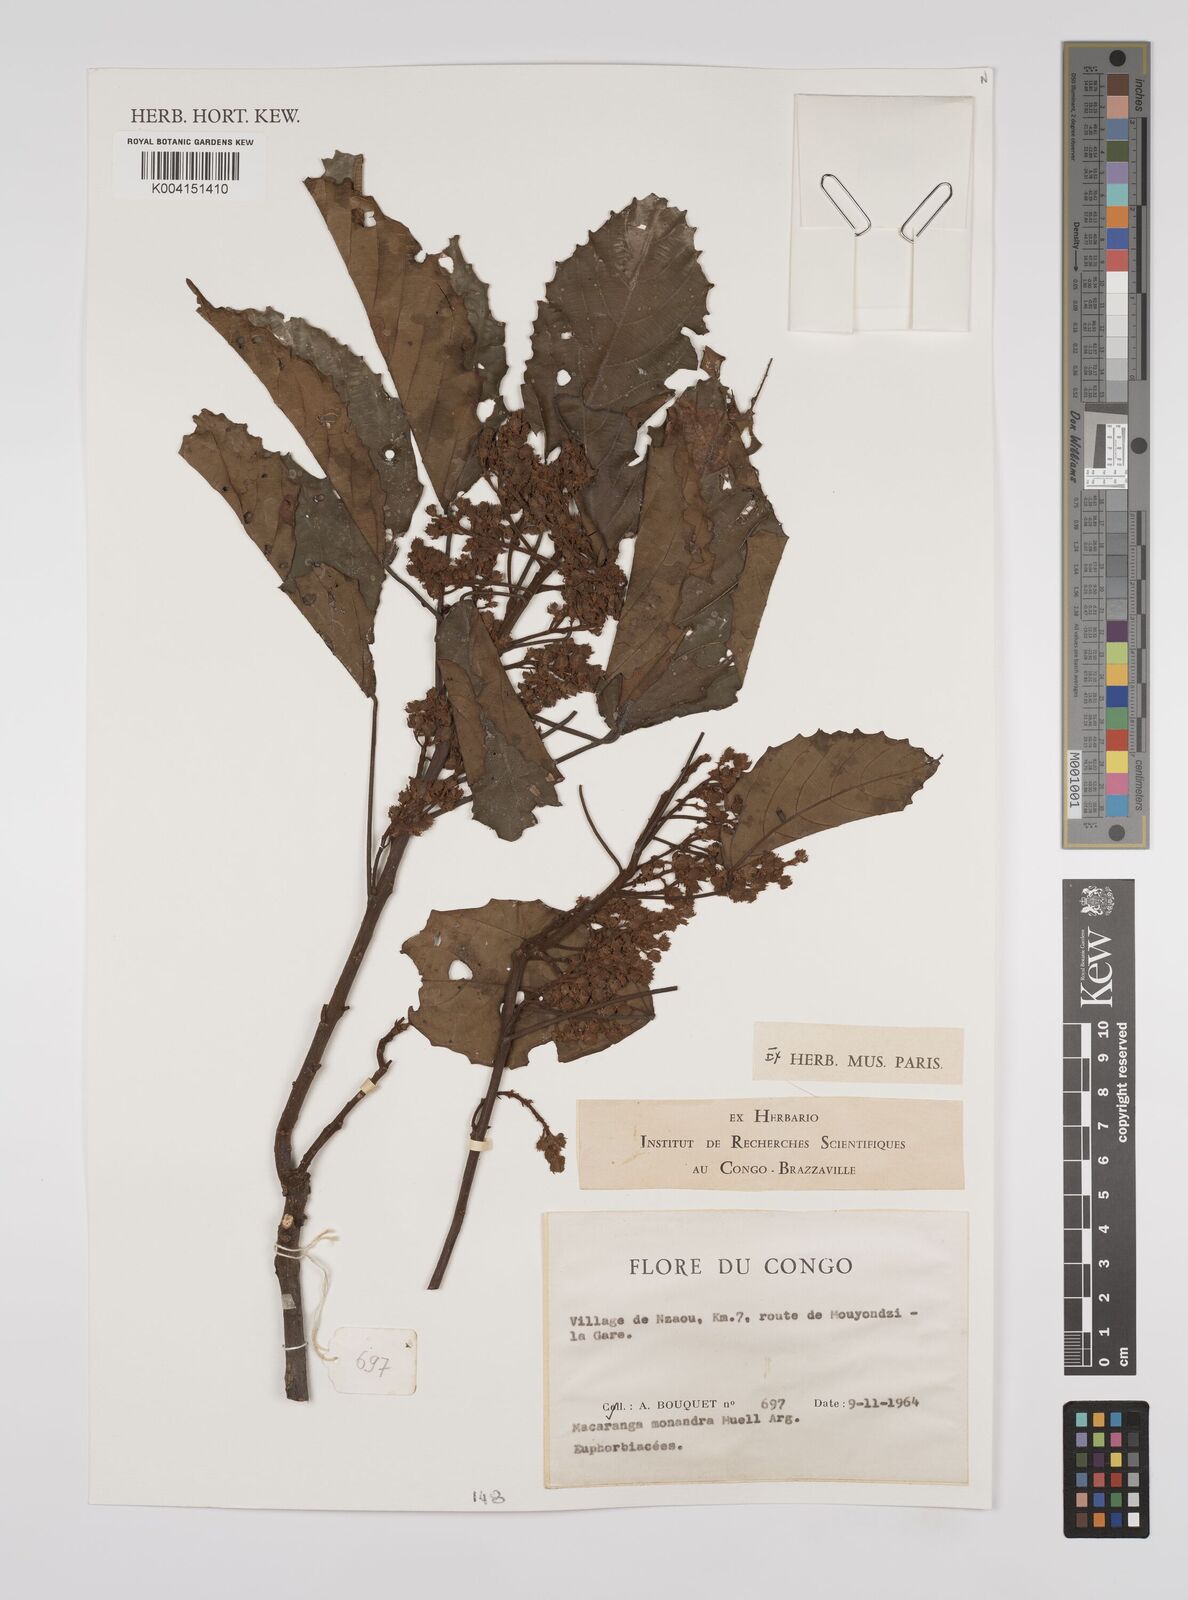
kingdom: Plantae
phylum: Tracheophyta
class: Magnoliopsida
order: Malpighiales
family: Euphorbiaceae
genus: Macaranga
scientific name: Macaranga monandra
